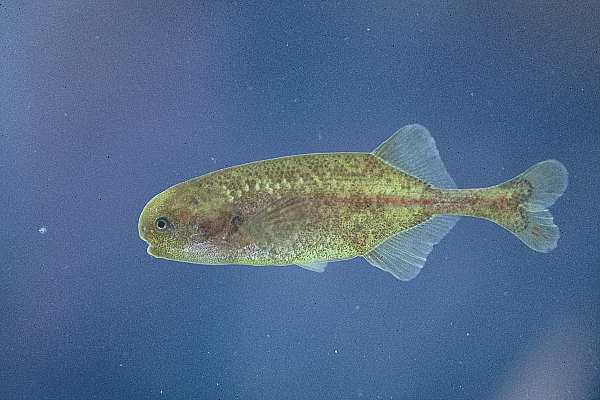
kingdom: Animalia
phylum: Chordata
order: Osteoglossiformes
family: Mormyridae
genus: Pollimyrus
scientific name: Pollimyrus castelnaui
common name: Dwarf stonebasher
